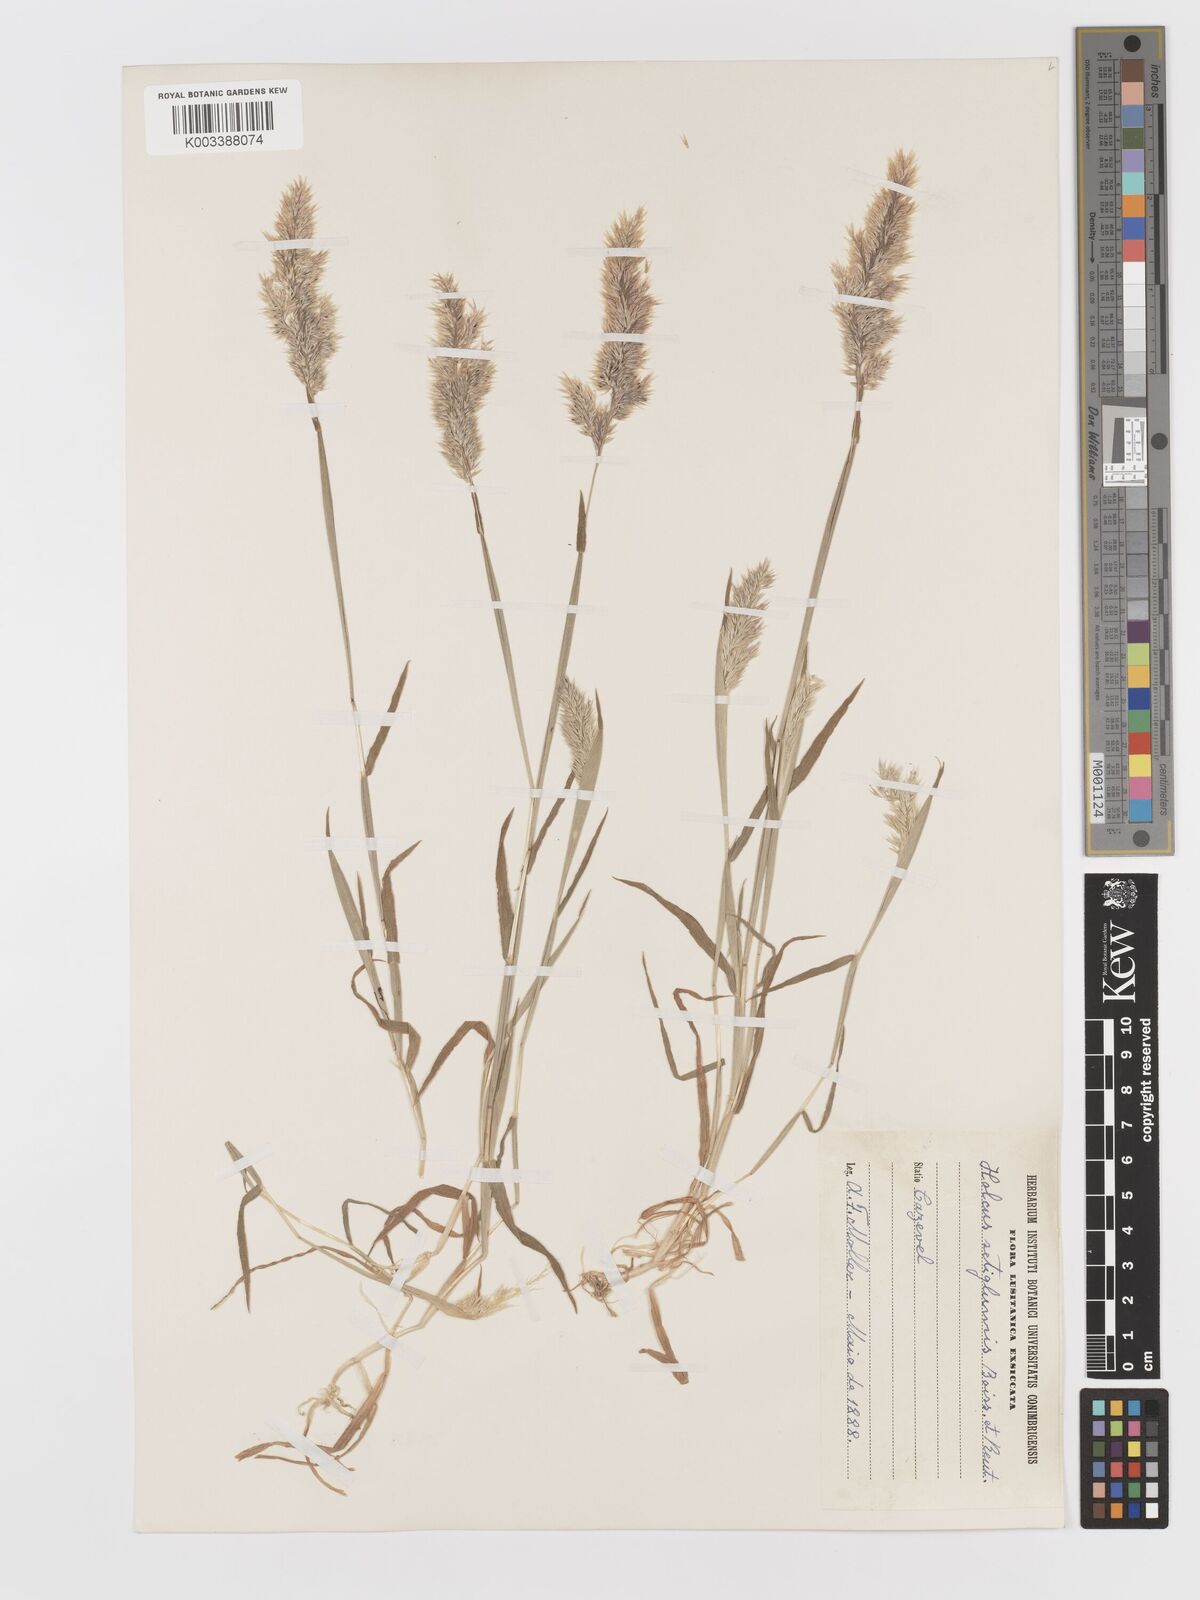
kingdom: Plantae
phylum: Tracheophyta
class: Liliopsida
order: Poales
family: Poaceae
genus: Holcus
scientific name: Holcus annuus
